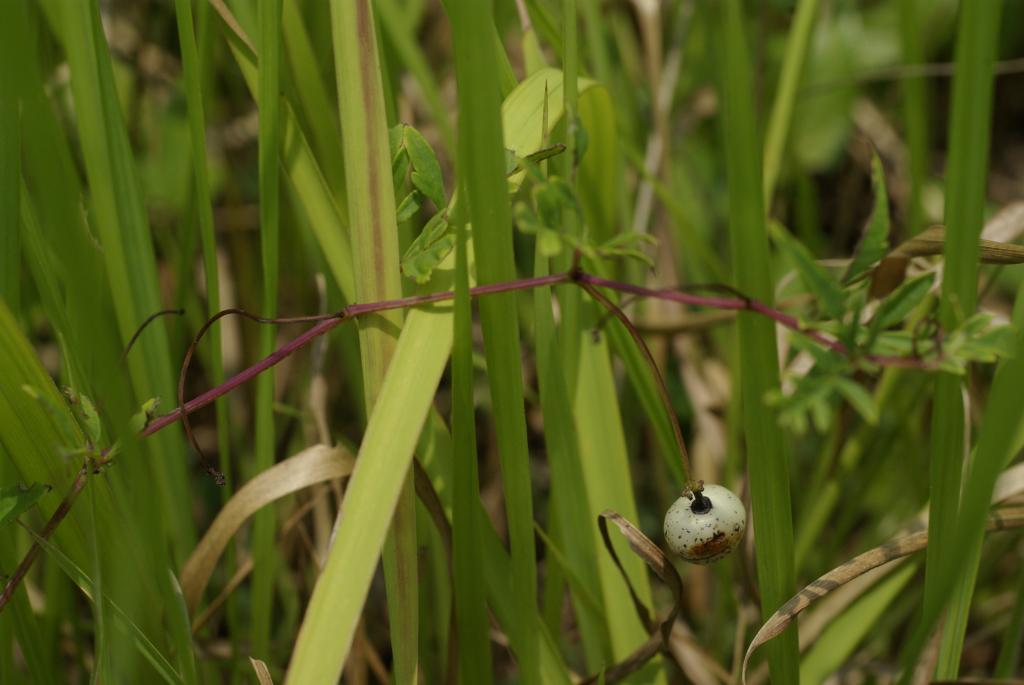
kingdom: Plantae
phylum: Tracheophyta
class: Magnoliopsida
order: Vitales
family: Vitaceae
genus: Ampelopsis
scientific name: Ampelopsis japonica
